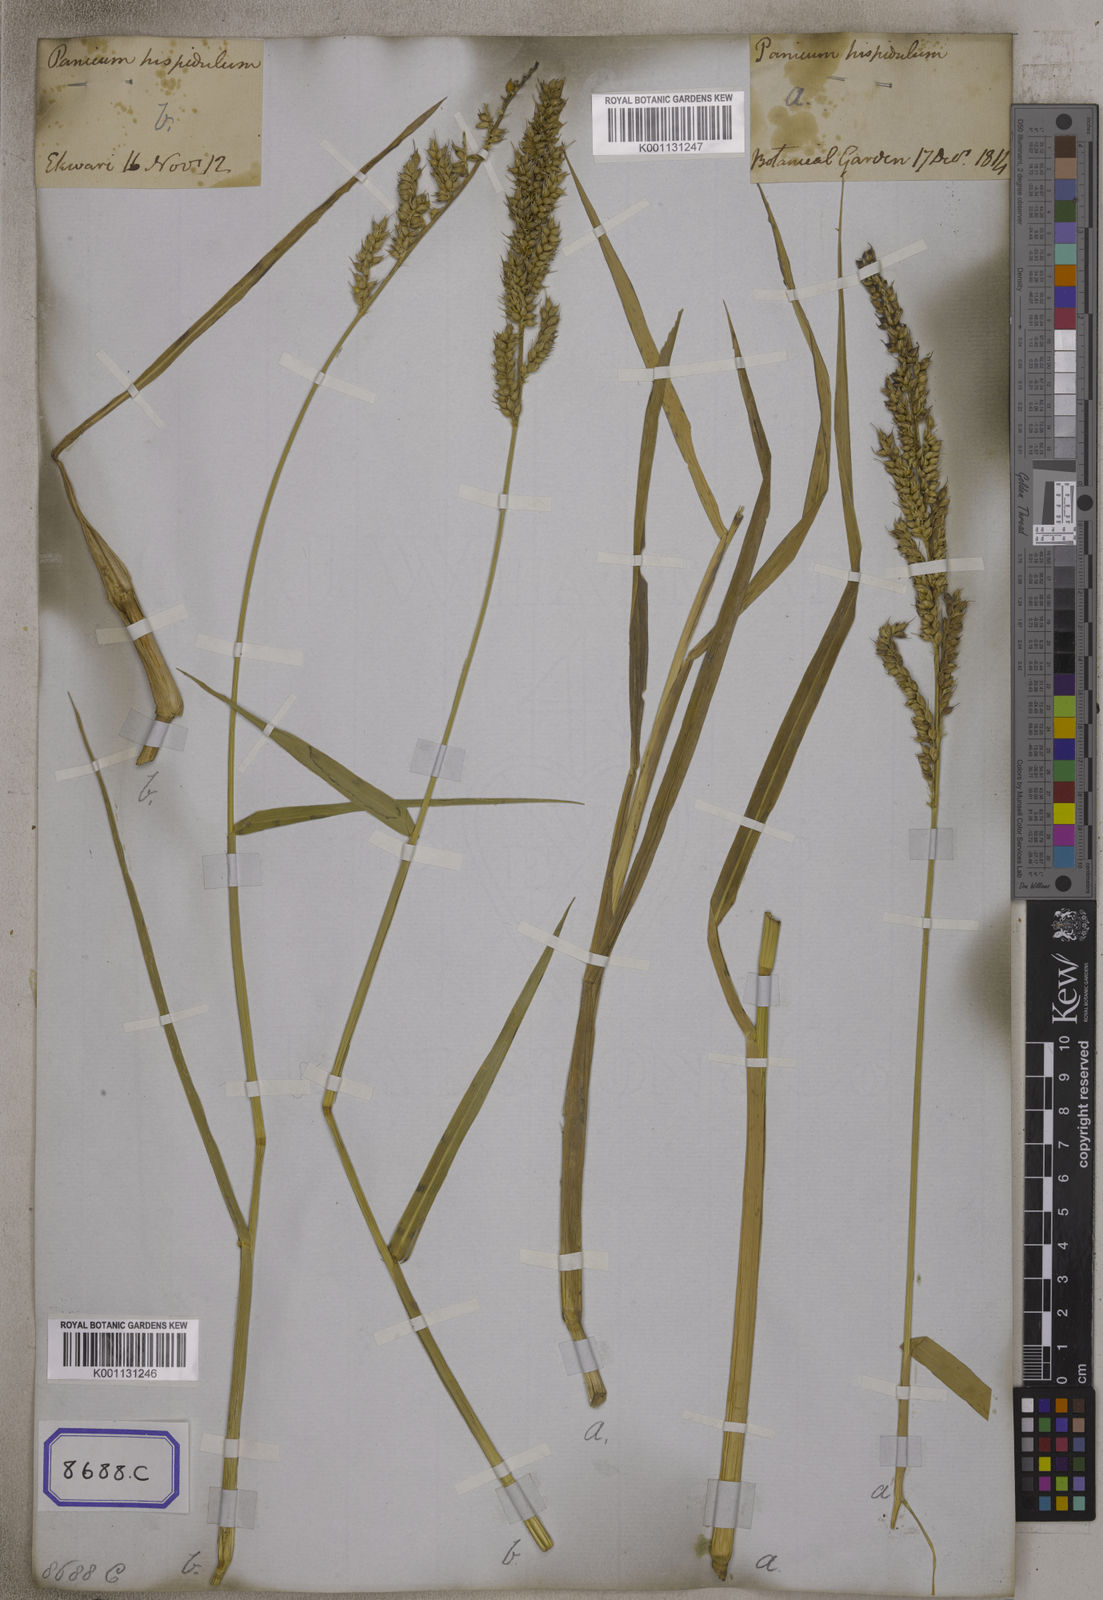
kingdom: Plantae
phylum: Tracheophyta
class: Liliopsida
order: Poales
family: Poaceae
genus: Echinochloa
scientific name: Echinochloa stagnina
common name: Burgu grass
